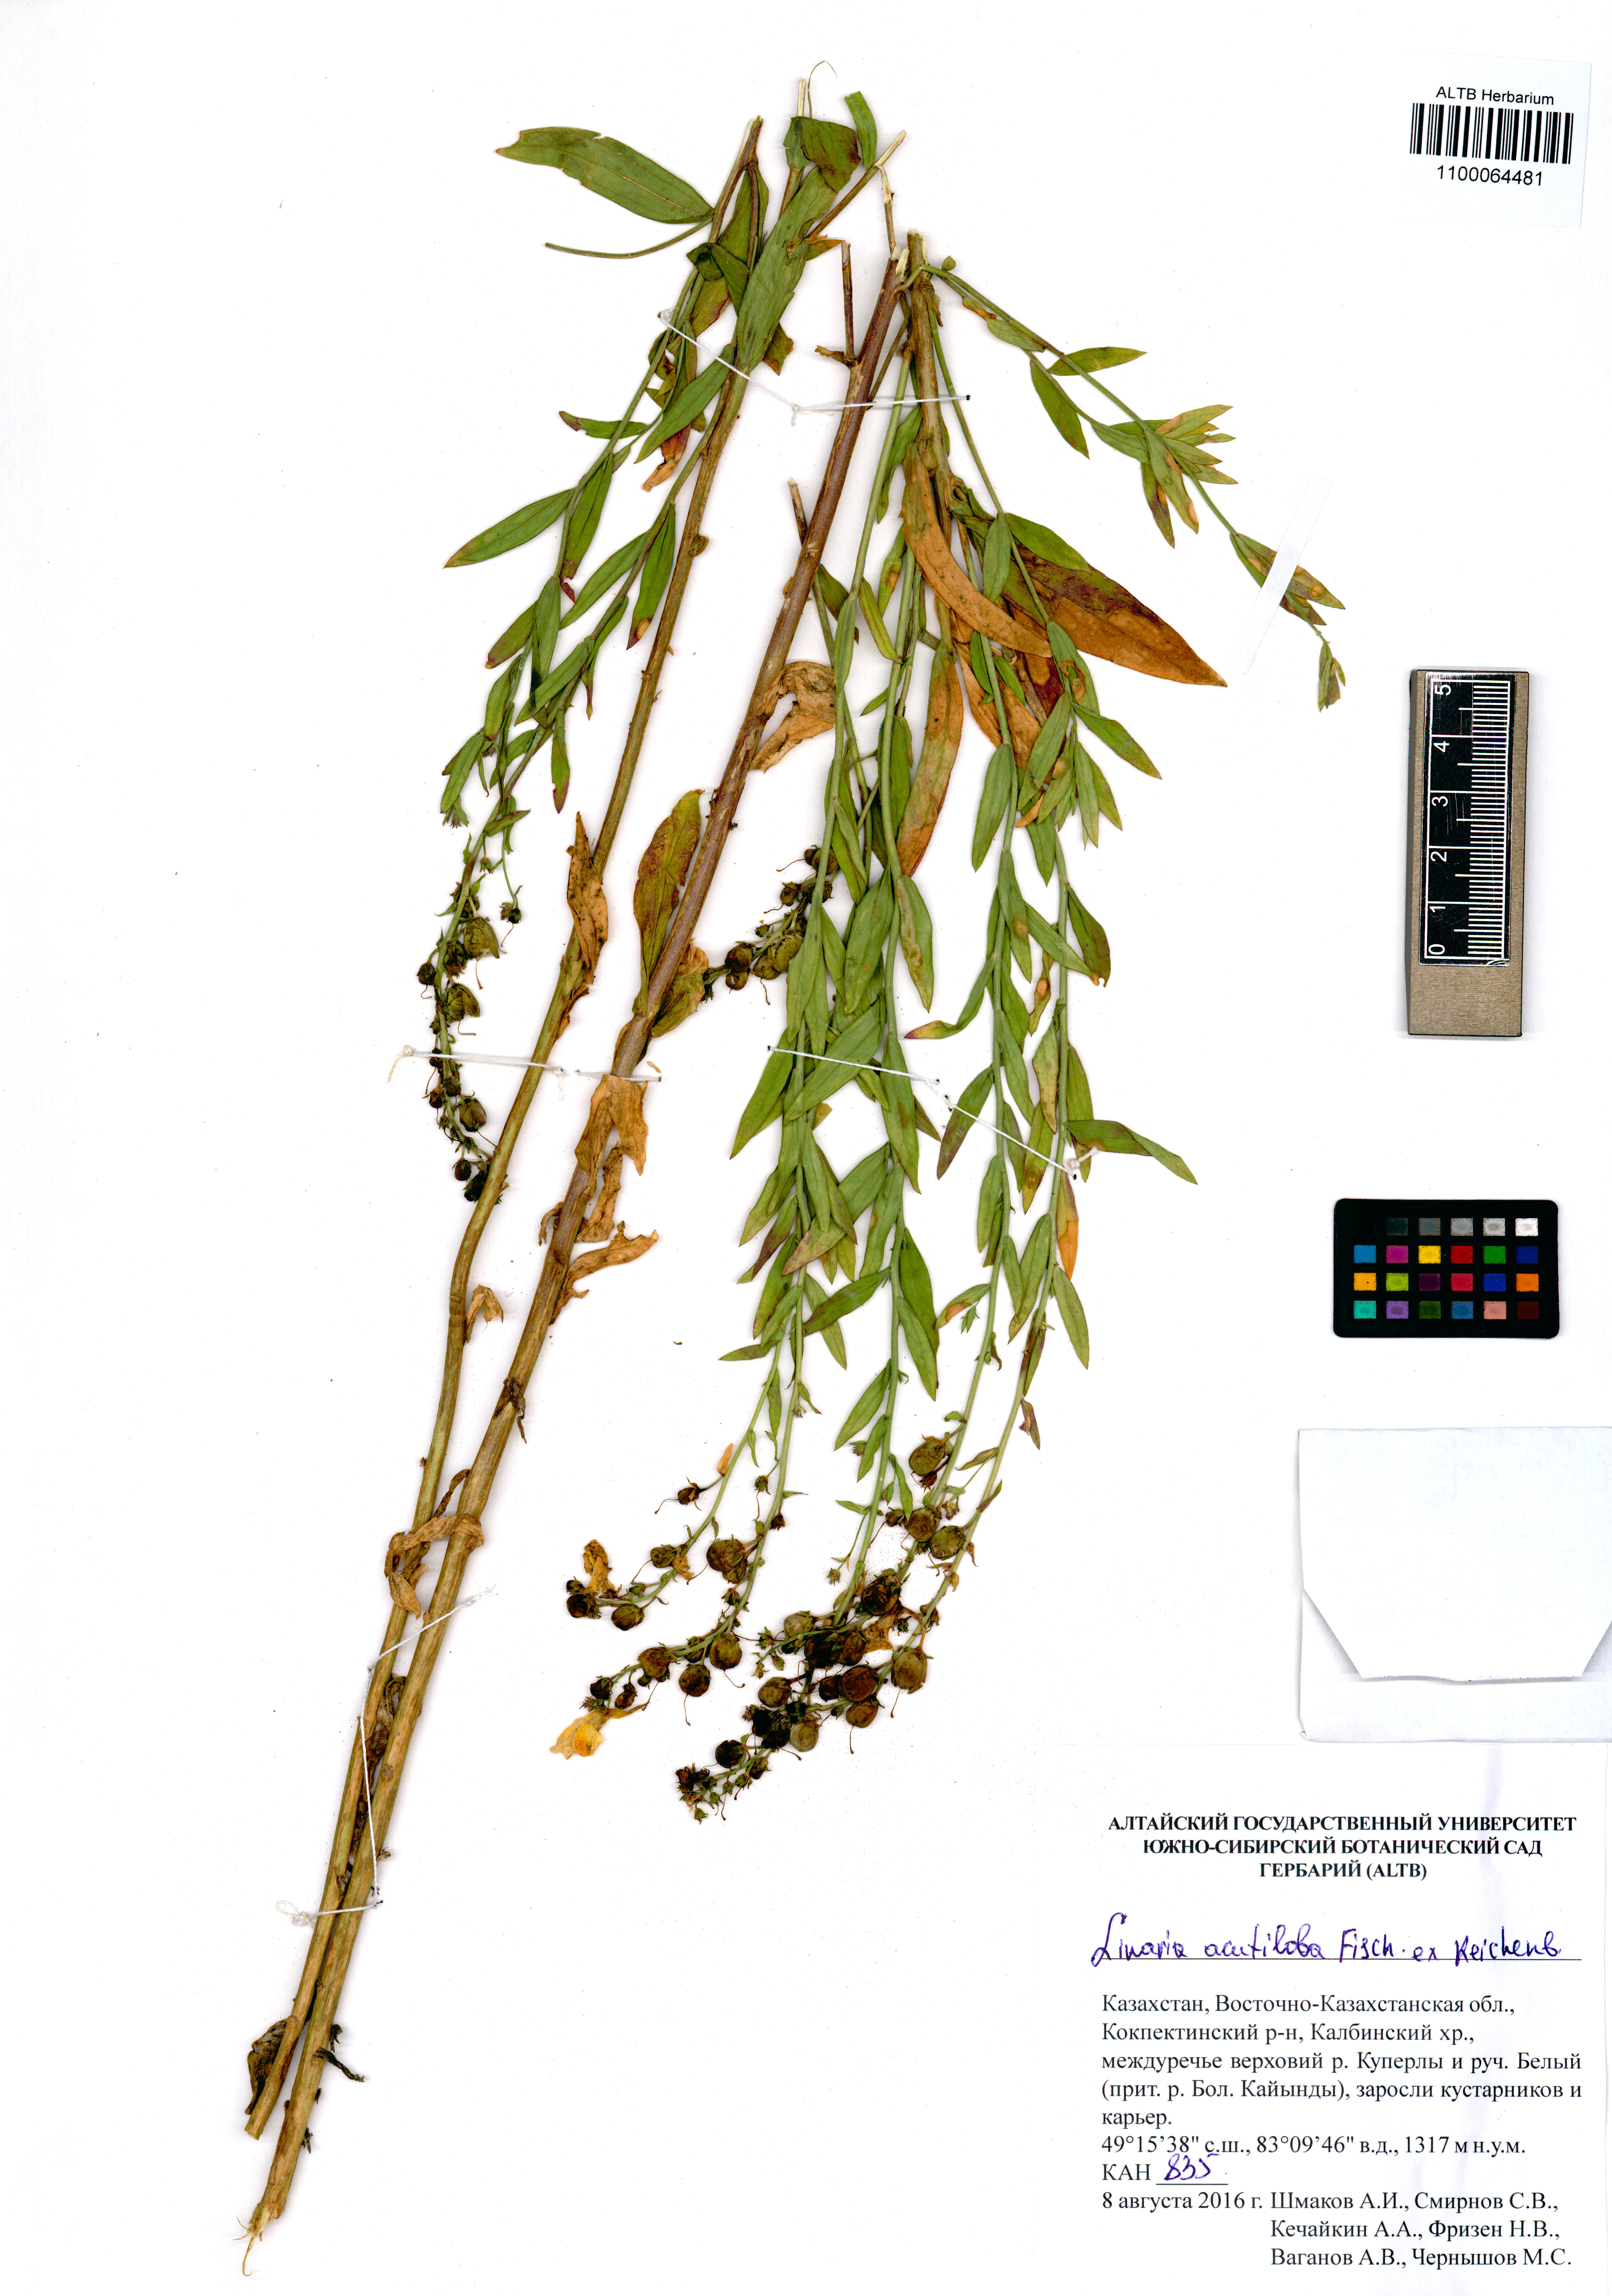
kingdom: Plantae
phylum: Tracheophyta
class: Magnoliopsida
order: Lamiales
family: Plantaginaceae
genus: Linaria
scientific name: Linaria acutiloba
